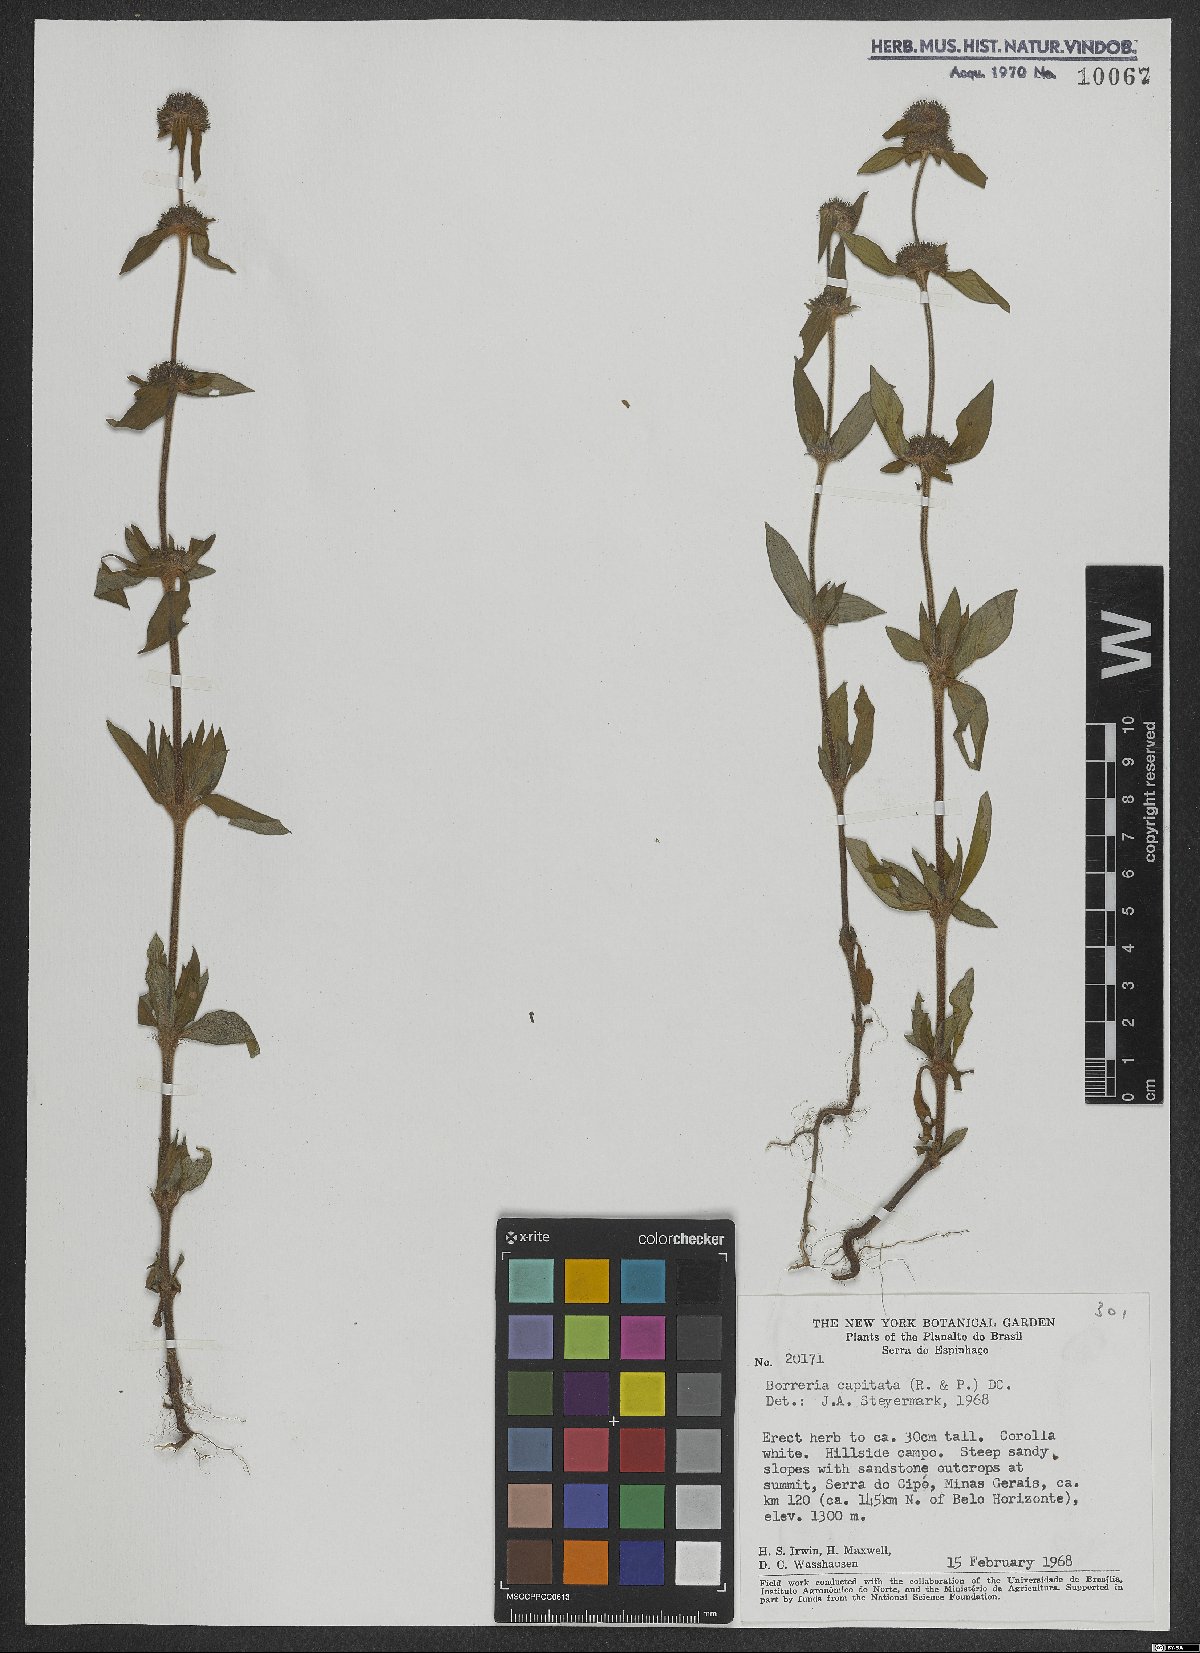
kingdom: Plantae
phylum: Tracheophyta
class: Magnoliopsida
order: Gentianales
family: Rubiaceae
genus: Spermacoce
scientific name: Spermacoce capitata
